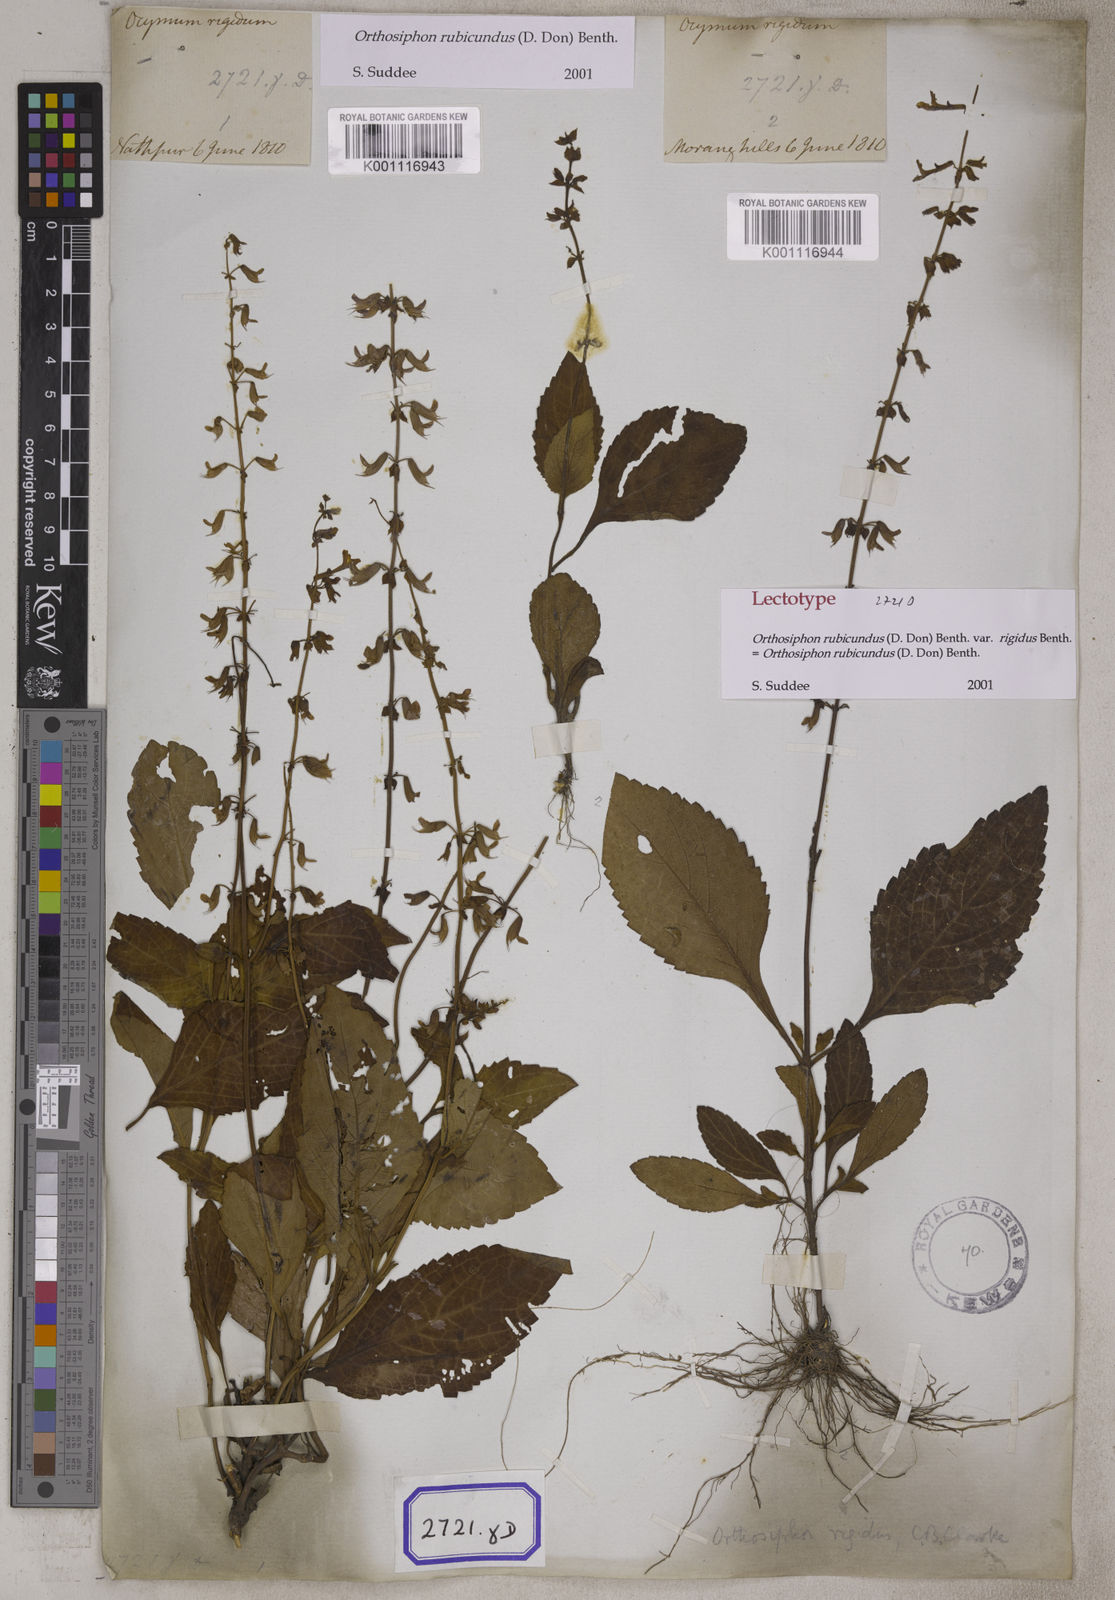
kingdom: Plantae
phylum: Tracheophyta
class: Magnoliopsida
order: Lamiales
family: Lamiaceae
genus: Orthosiphon
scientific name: Orthosiphon
